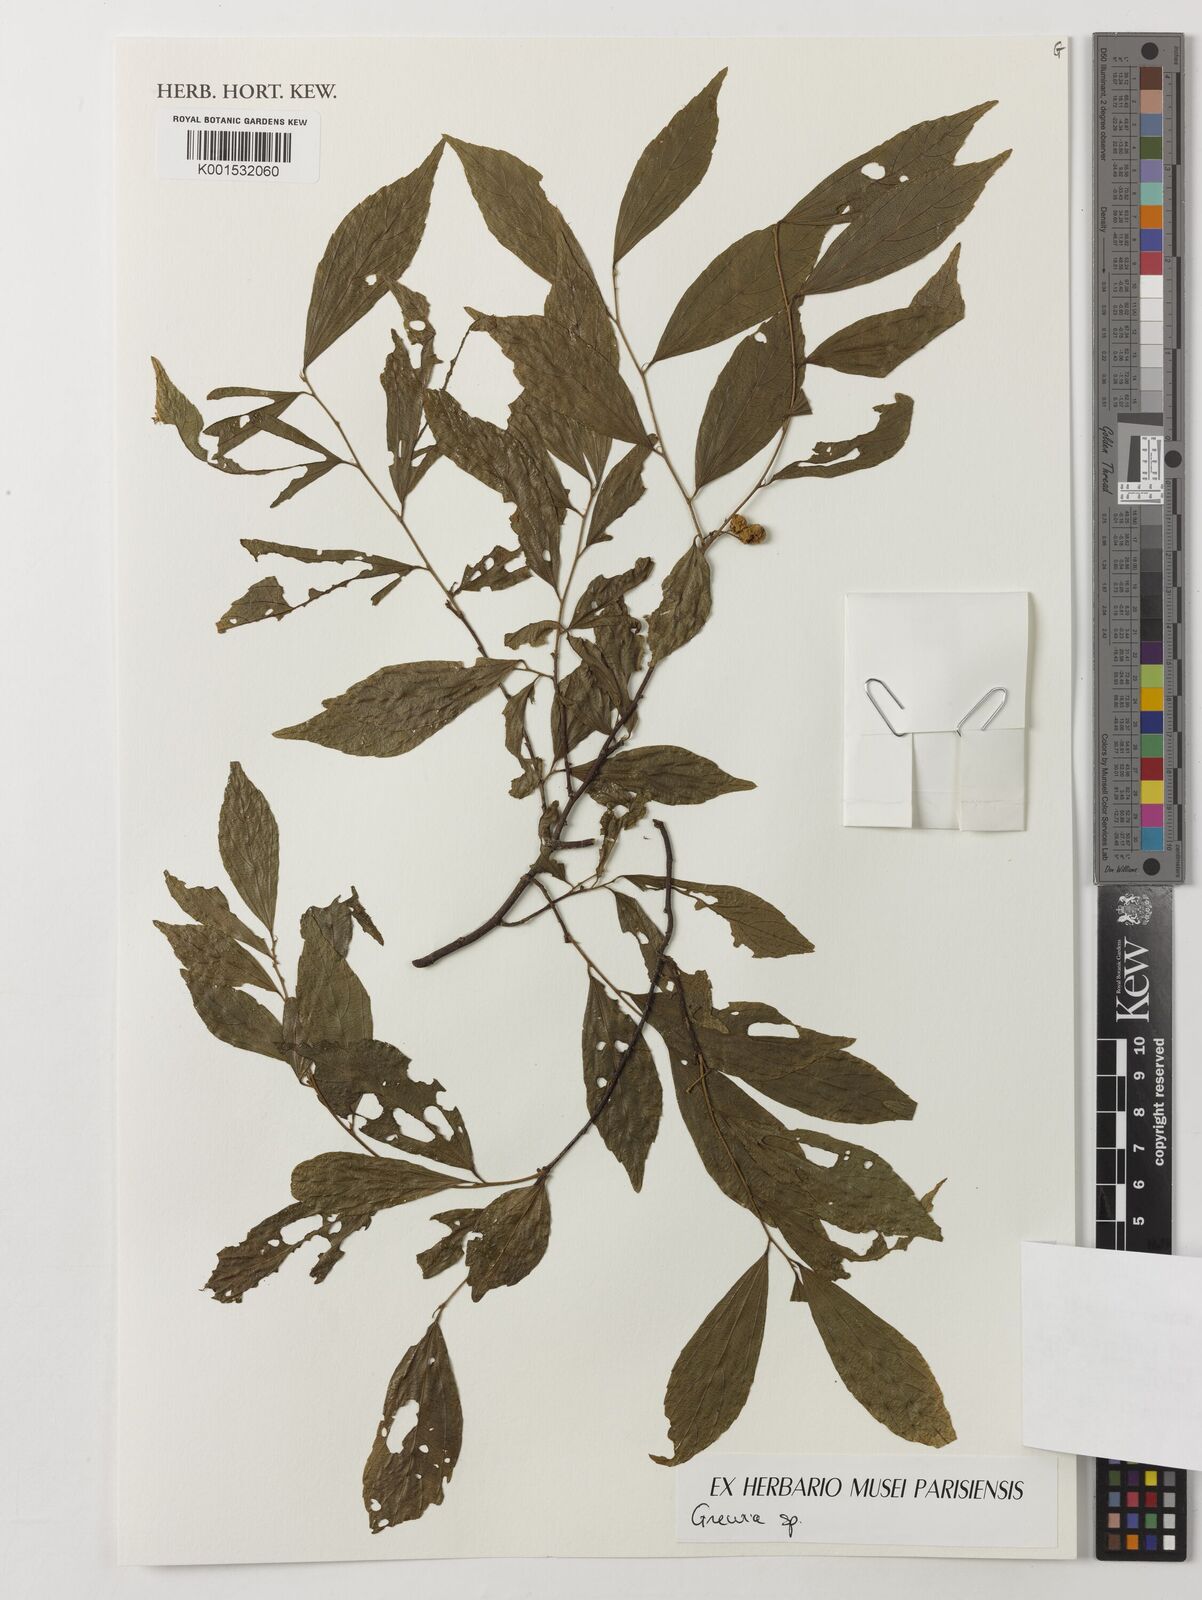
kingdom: Plantae
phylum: Tracheophyta
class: Magnoliopsida
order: Malvales
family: Malvaceae
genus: Grewia
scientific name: Grewia
